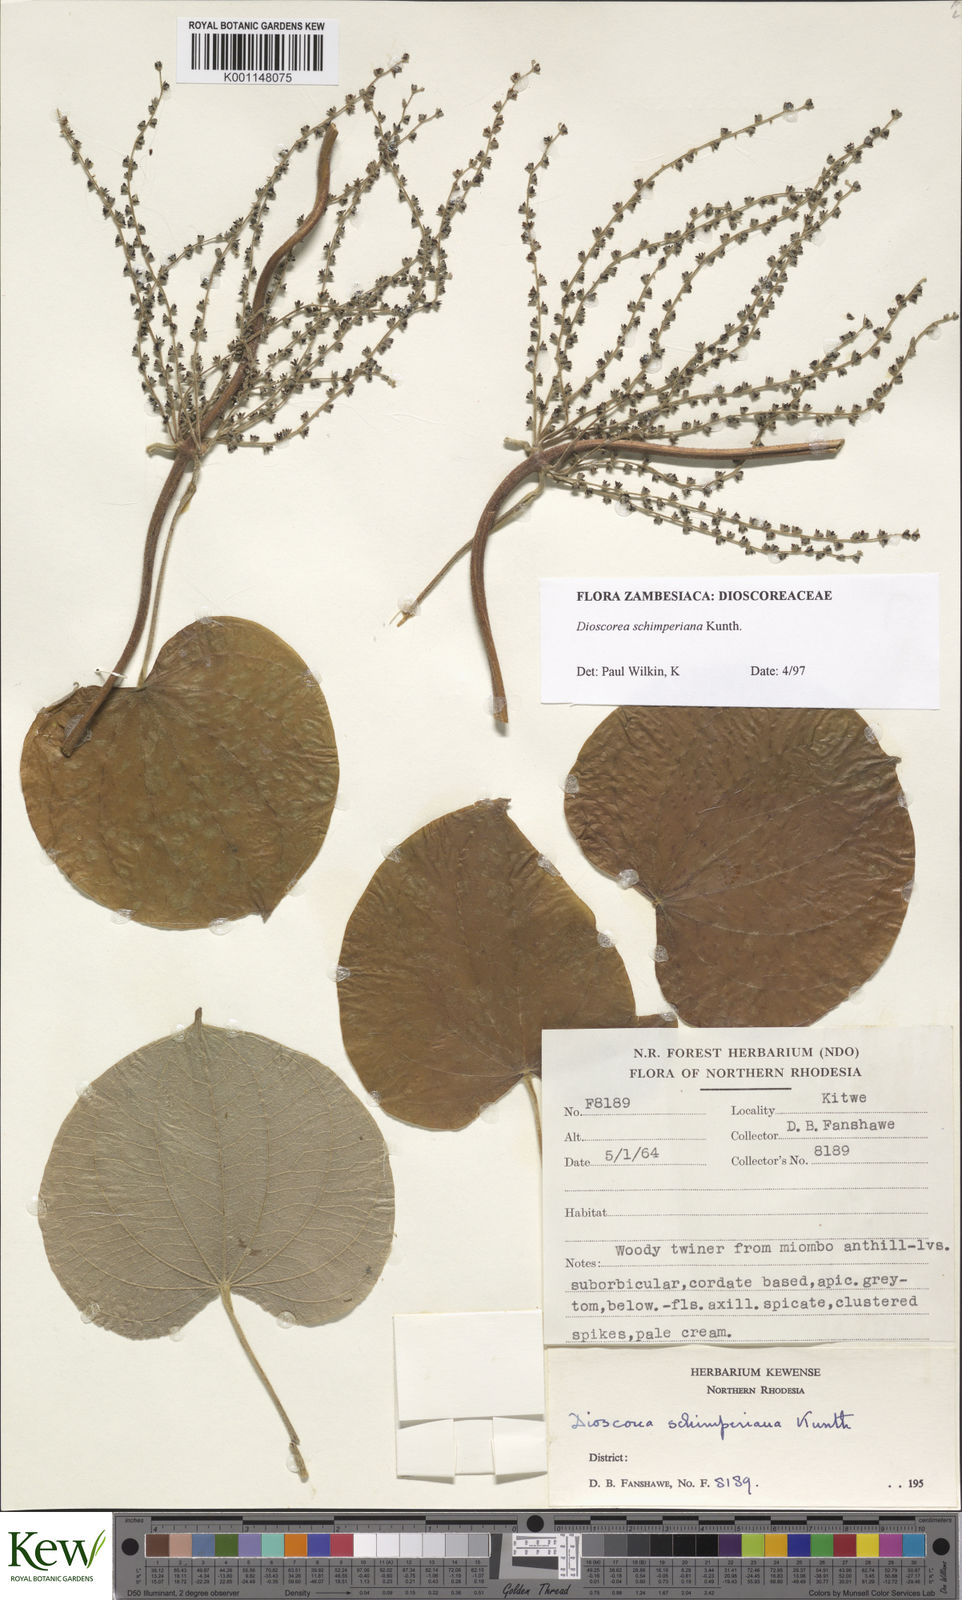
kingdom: Plantae
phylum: Tracheophyta
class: Liliopsida
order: Dioscoreales
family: Dioscoreaceae
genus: Dioscorea
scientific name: Dioscorea schimperiana
